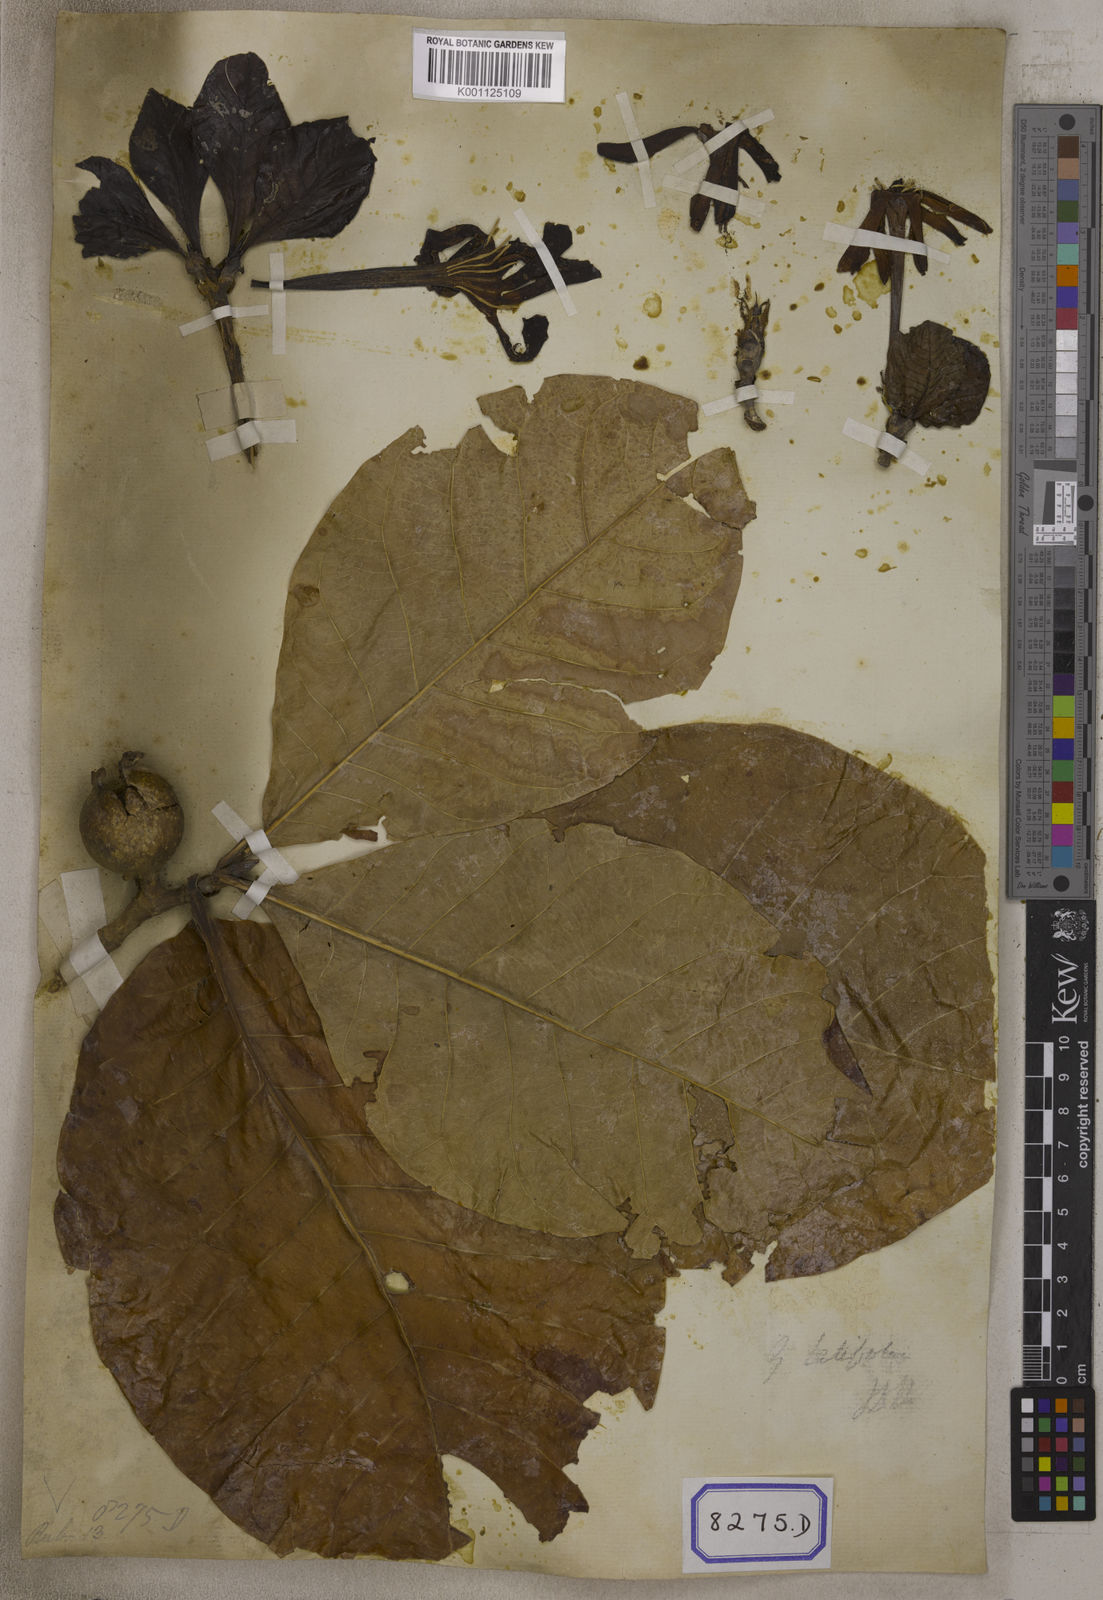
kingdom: Plantae
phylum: Tracheophyta
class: Magnoliopsida
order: Gentianales
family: Rubiaceae
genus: Gardenia
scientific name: Gardenia
